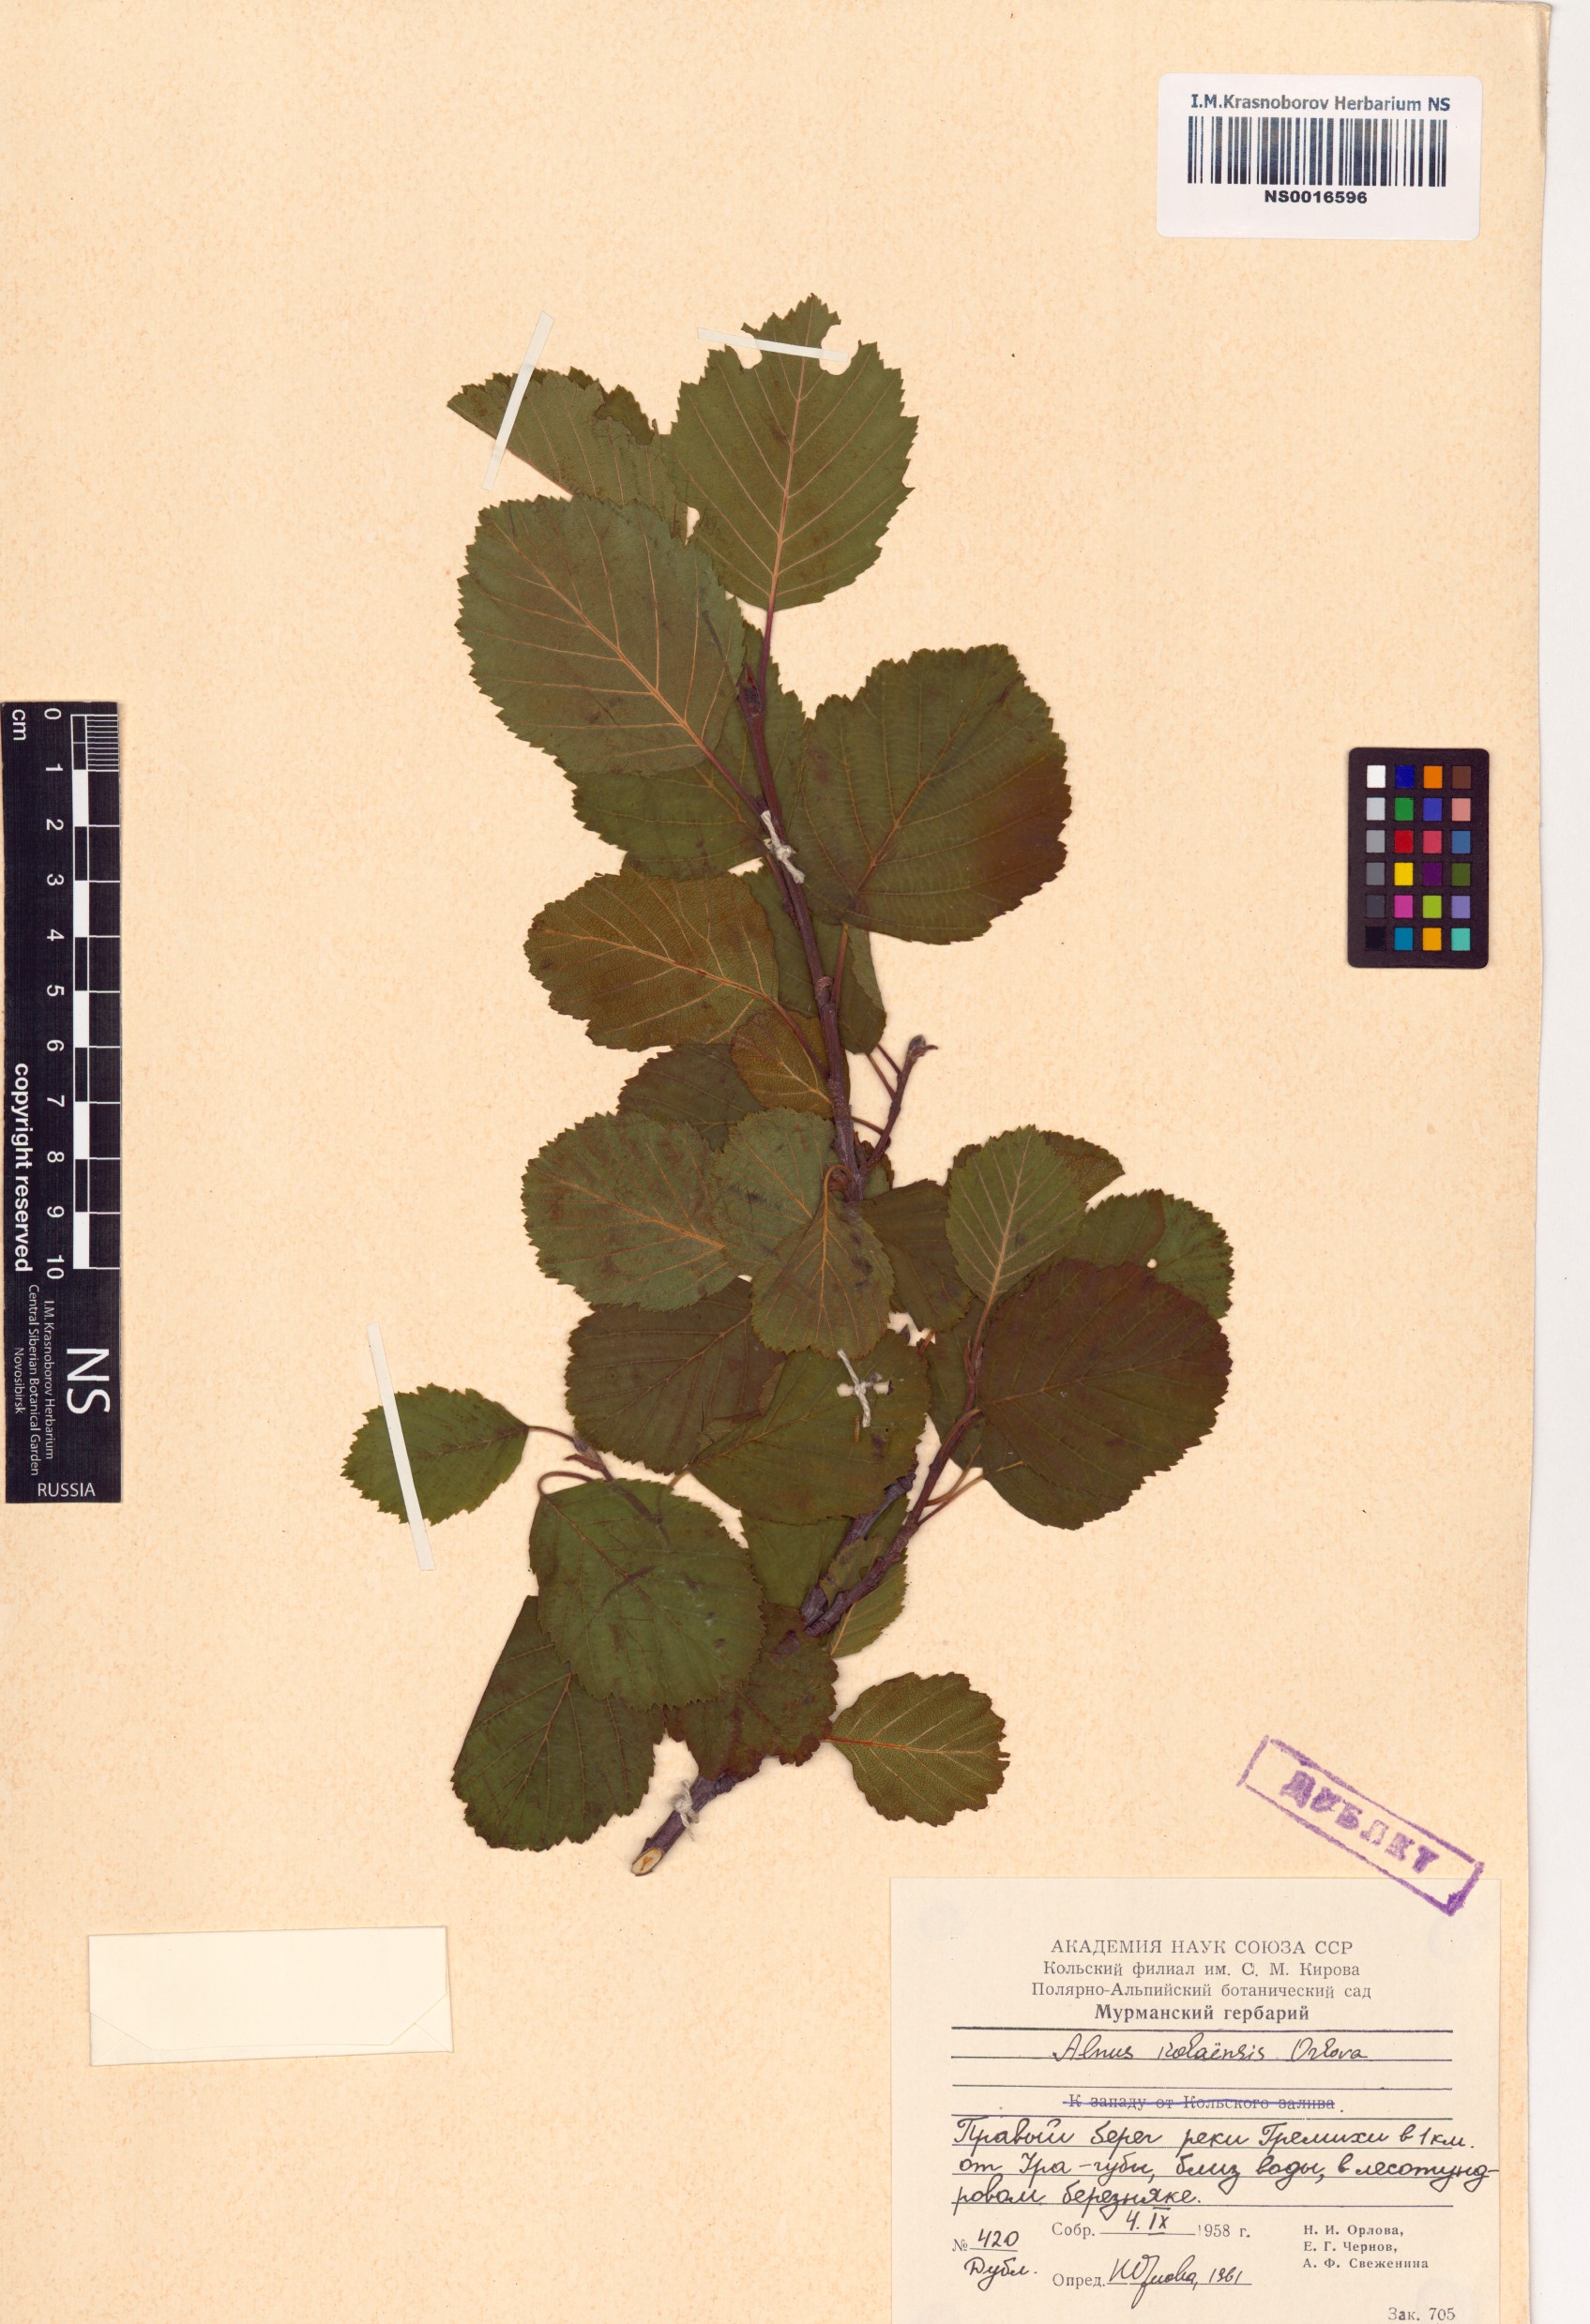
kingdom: Plantae
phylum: Tracheophyta
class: Magnoliopsida
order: Fagales
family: Betulaceae
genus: Alnus
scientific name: Alnus incana
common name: Grey alder
